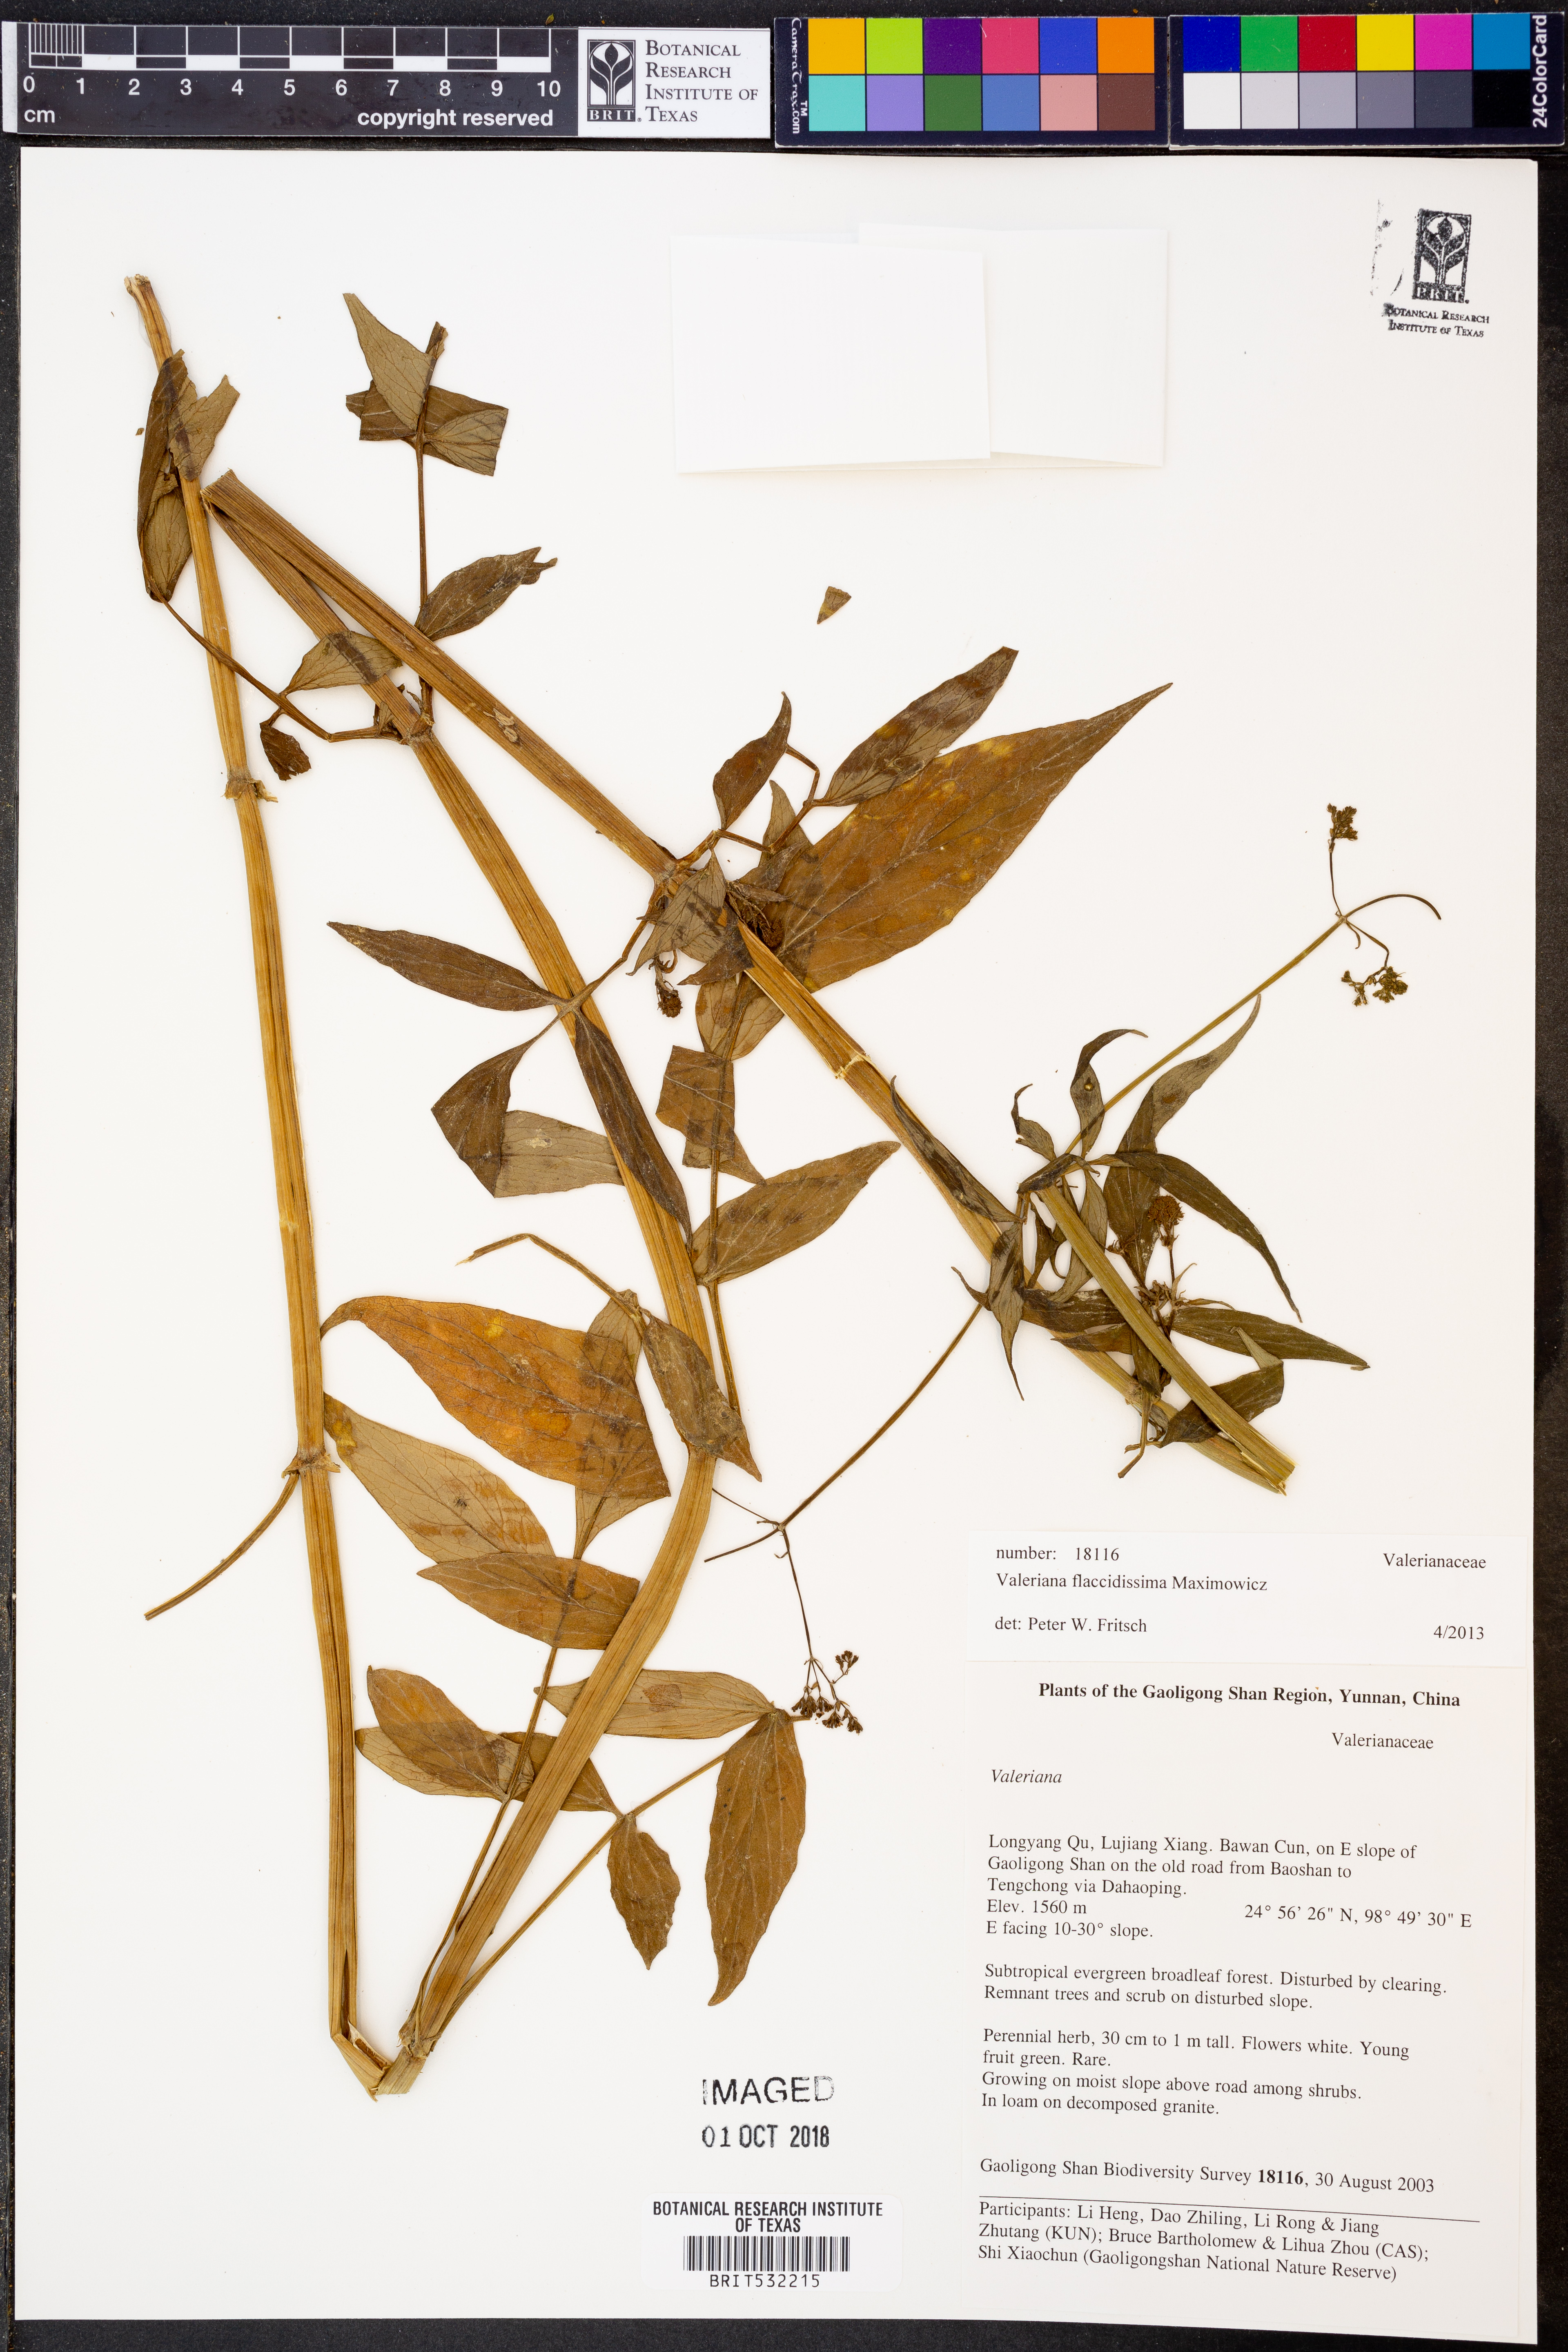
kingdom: Plantae
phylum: Tracheophyta
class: Magnoliopsida
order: Dipsacales
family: Caprifoliaceae
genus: Valeriana
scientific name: Valeriana flaccidissima
